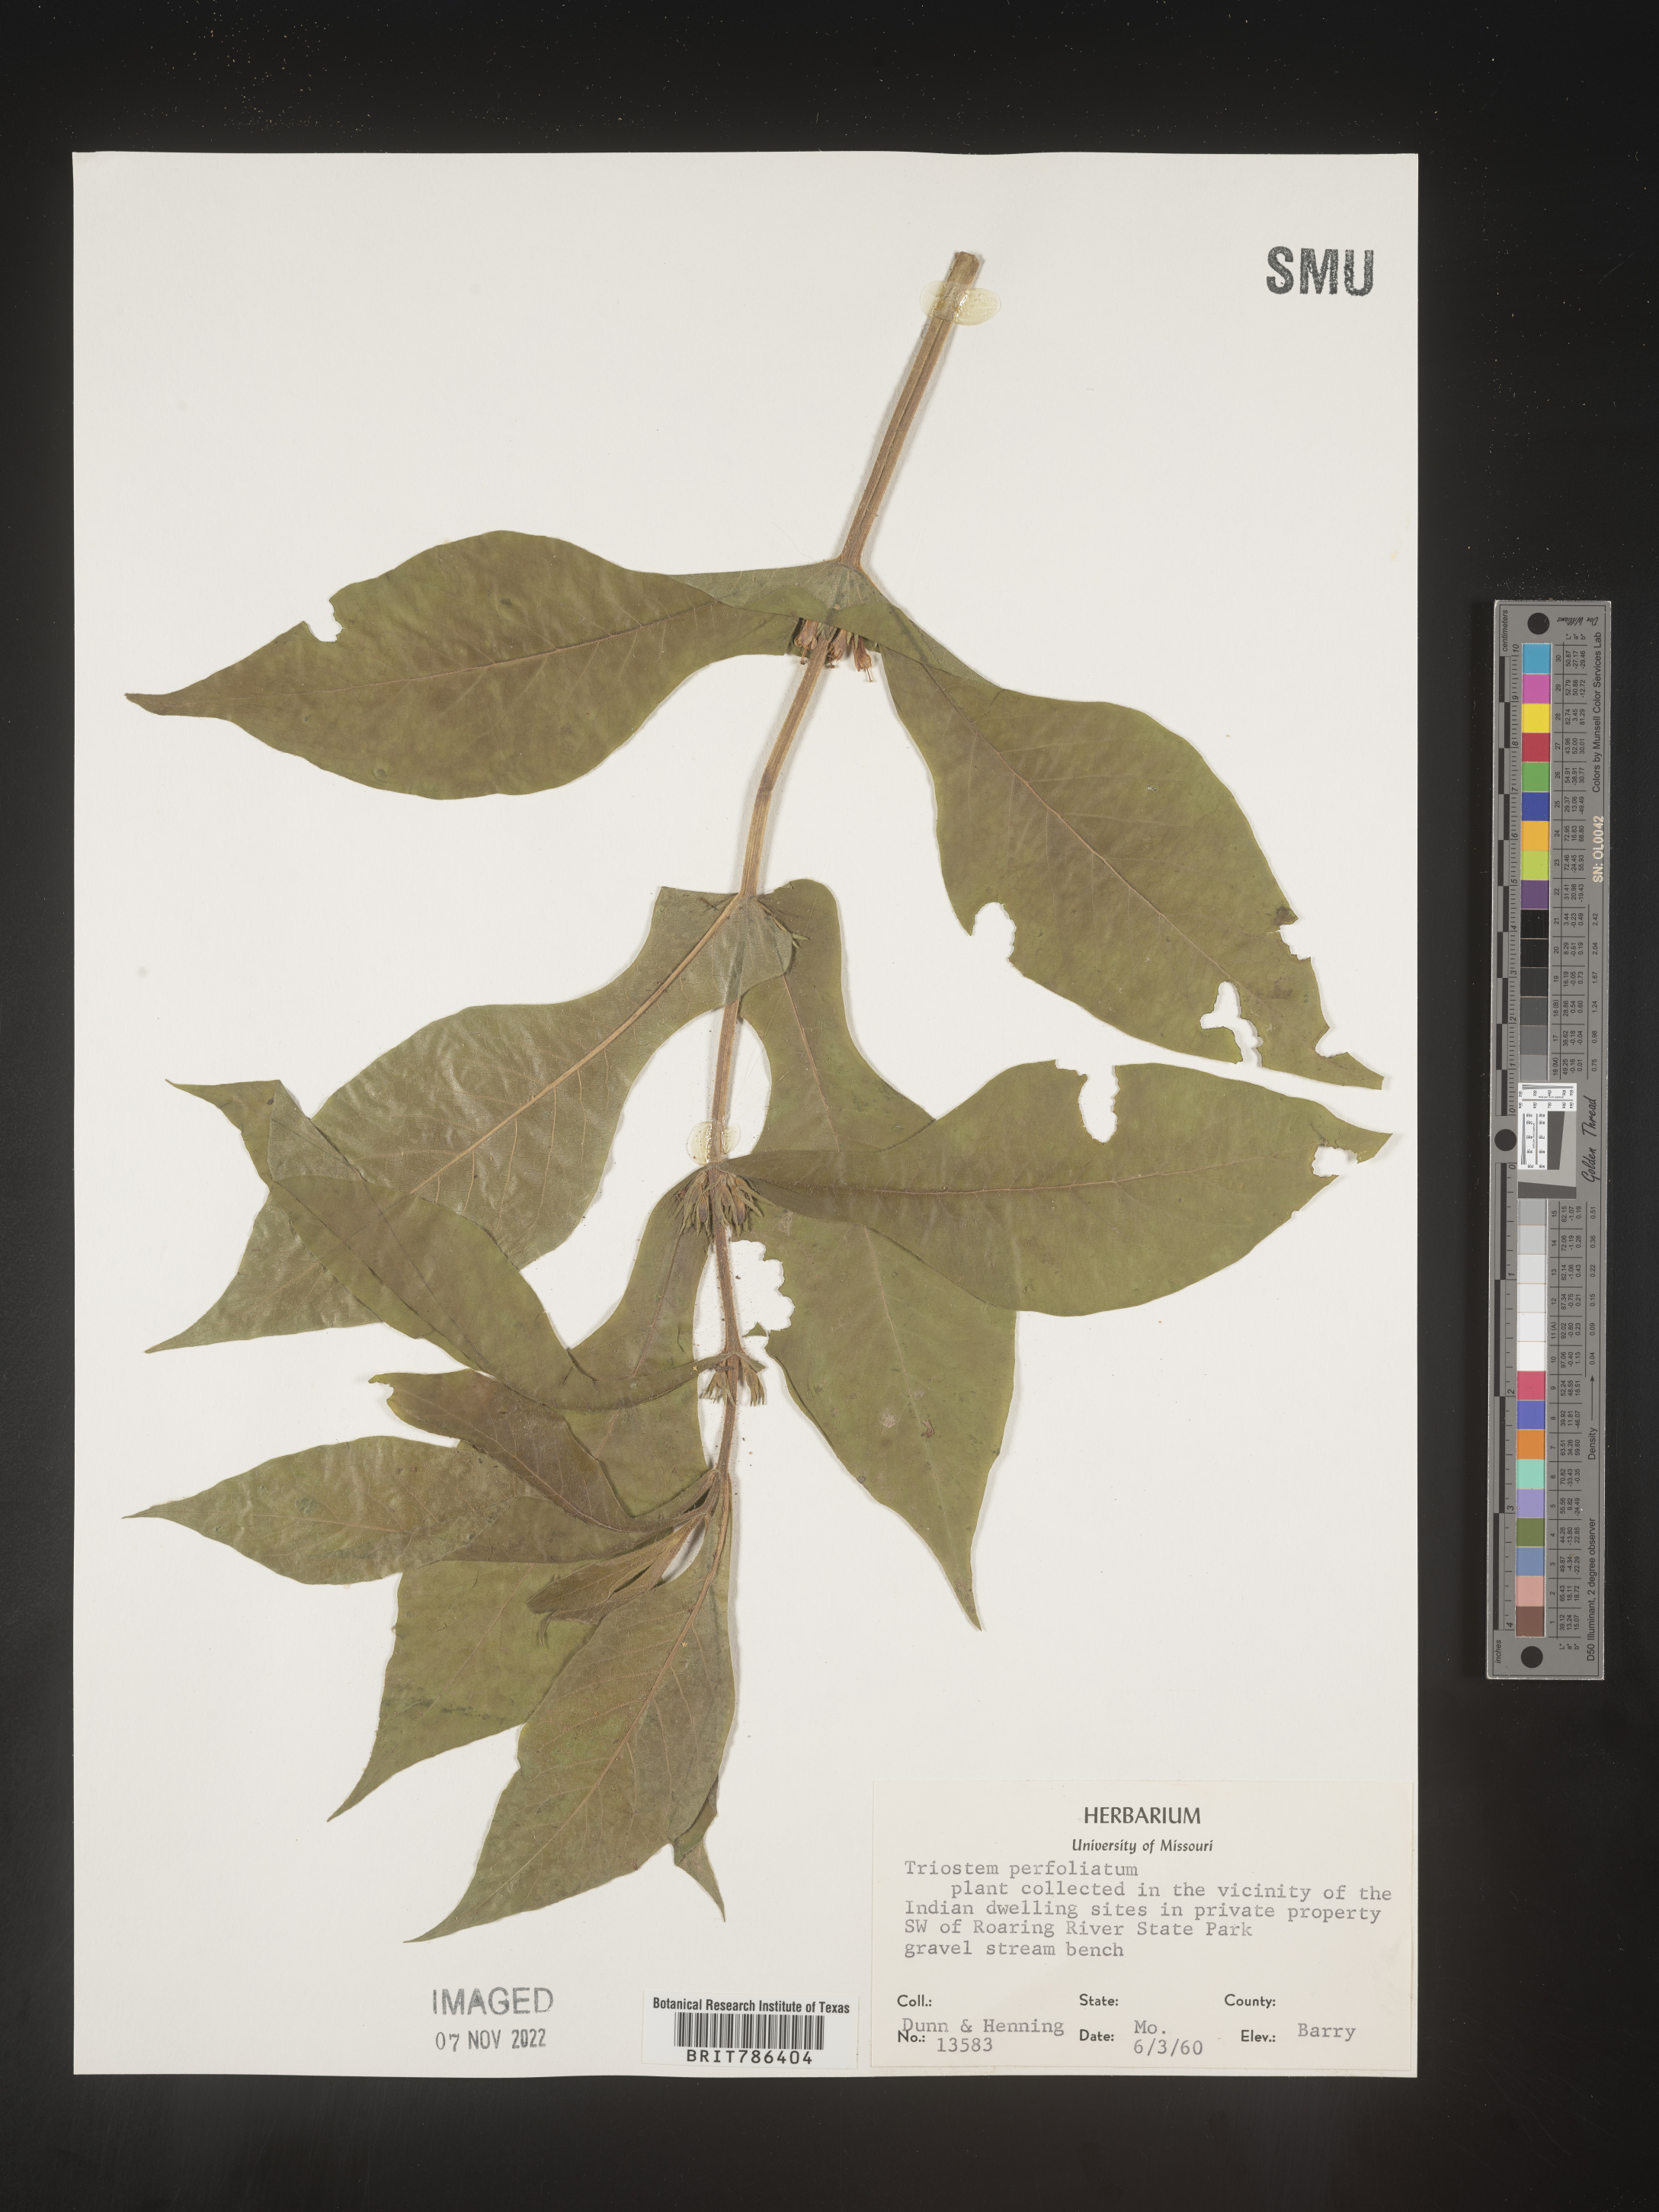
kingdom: Plantae
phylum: Tracheophyta
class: Magnoliopsida
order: Dipsacales
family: Caprifoliaceae
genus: Triosteum
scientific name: Triosteum perfoliatum
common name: Common horse-gentian
